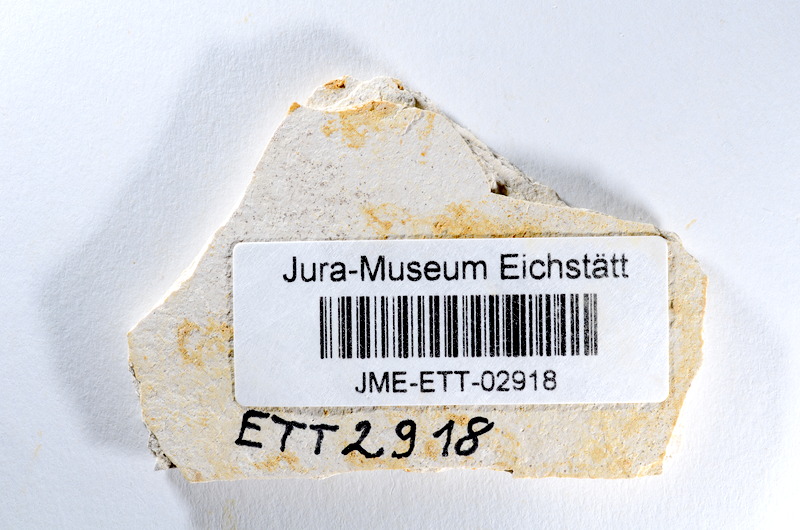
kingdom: Animalia
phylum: Chordata
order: Salmoniformes
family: Orthogonikleithridae
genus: Orthogonikleithrus
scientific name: Orthogonikleithrus hoelli
